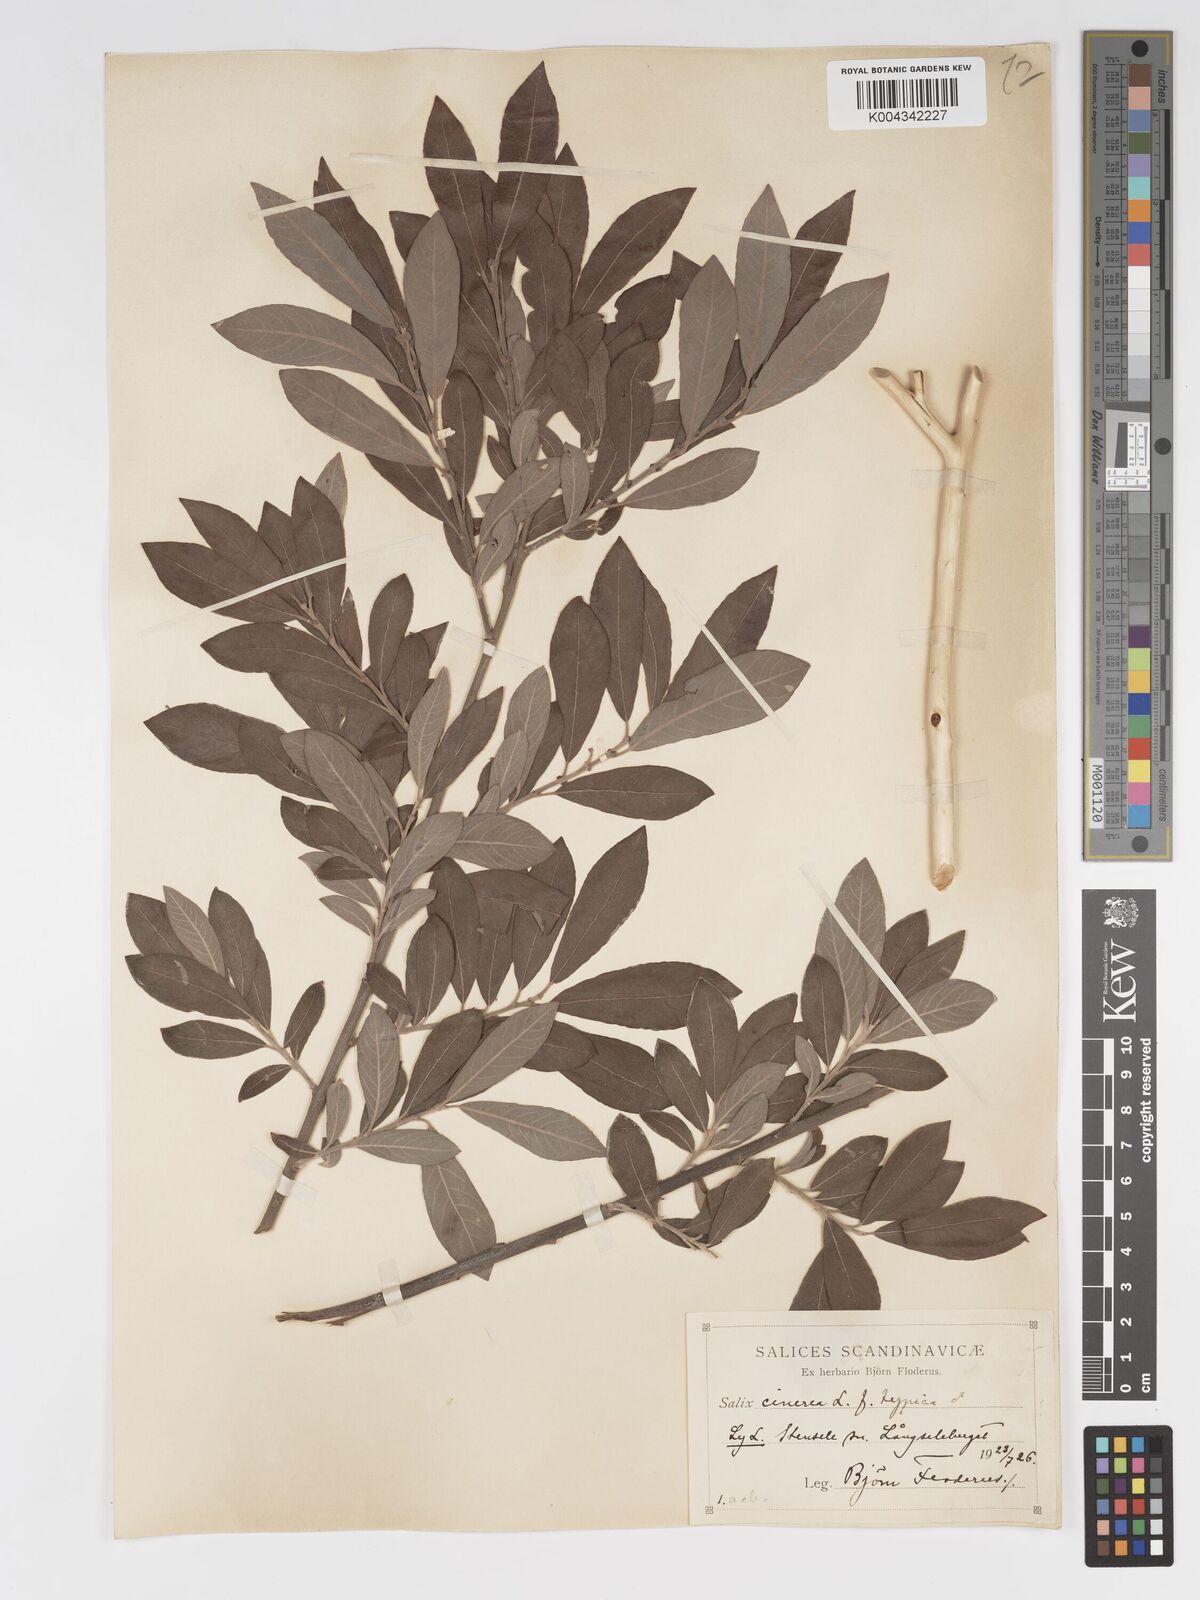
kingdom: Plantae
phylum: Tracheophyta
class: Magnoliopsida
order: Malpighiales
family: Salicaceae
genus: Salix
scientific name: Salix
